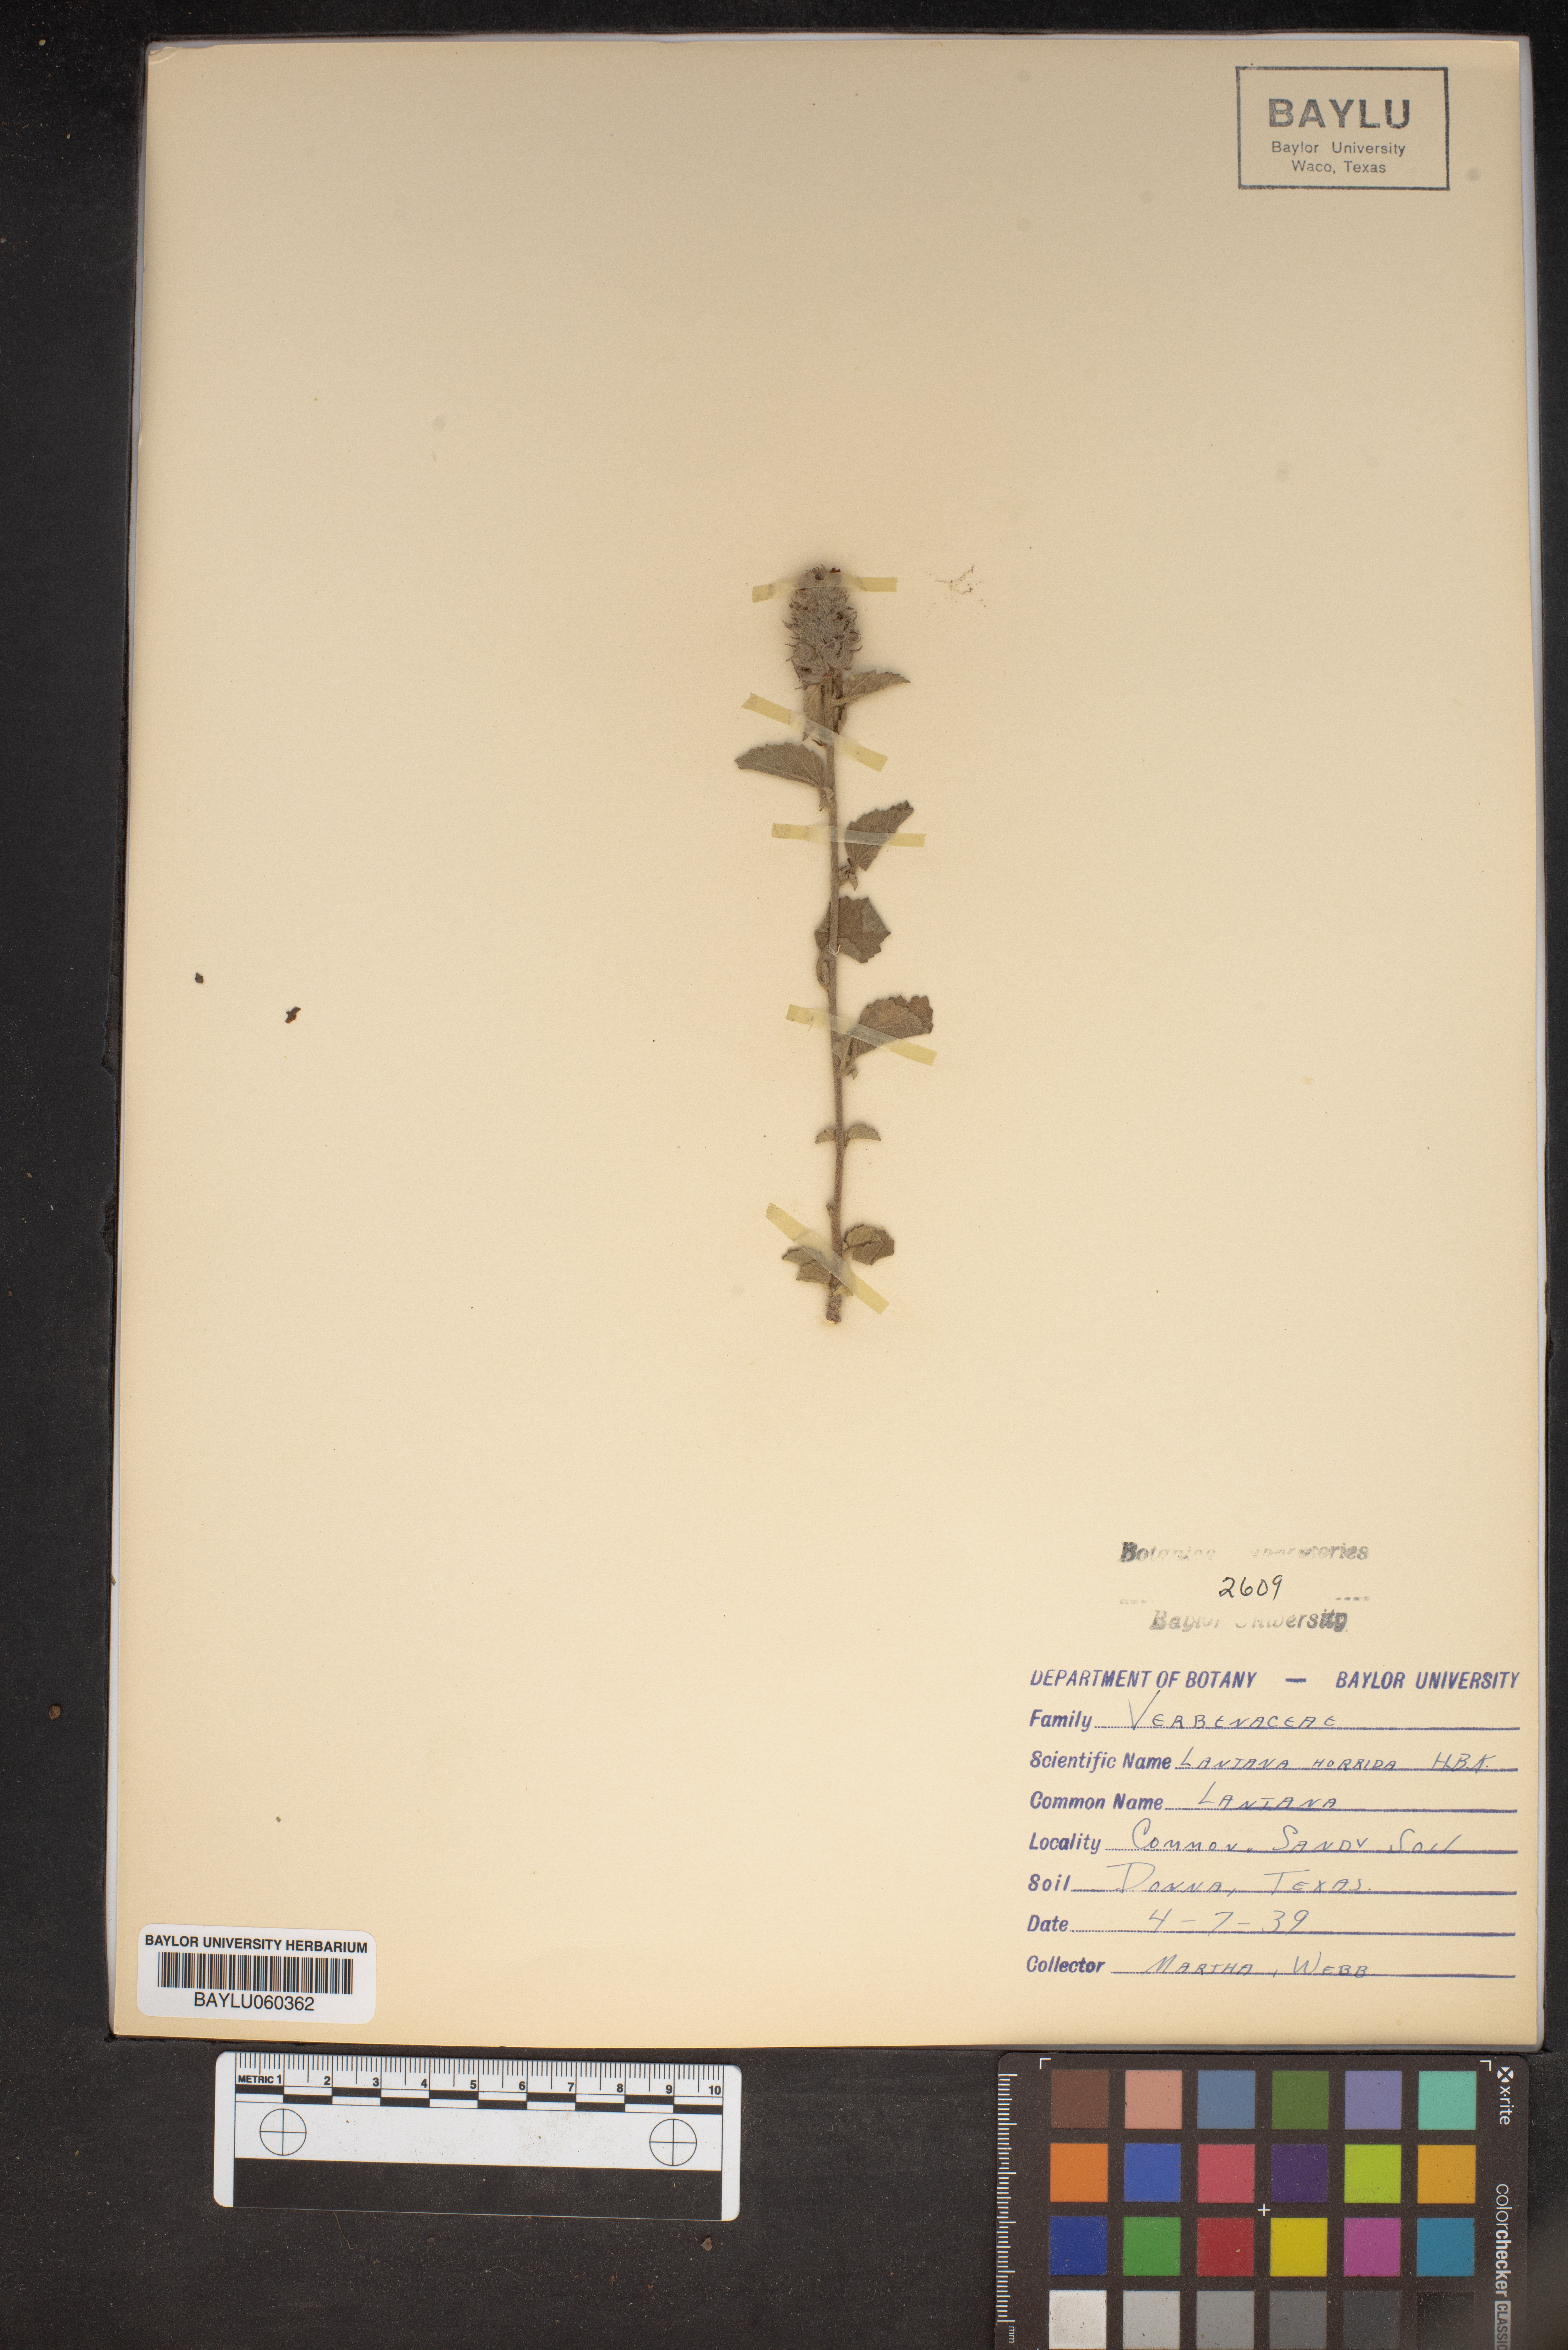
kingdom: Plantae
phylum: Tracheophyta
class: Magnoliopsida
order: Lamiales
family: Verbenaceae
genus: Lantana
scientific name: Lantana horrida
